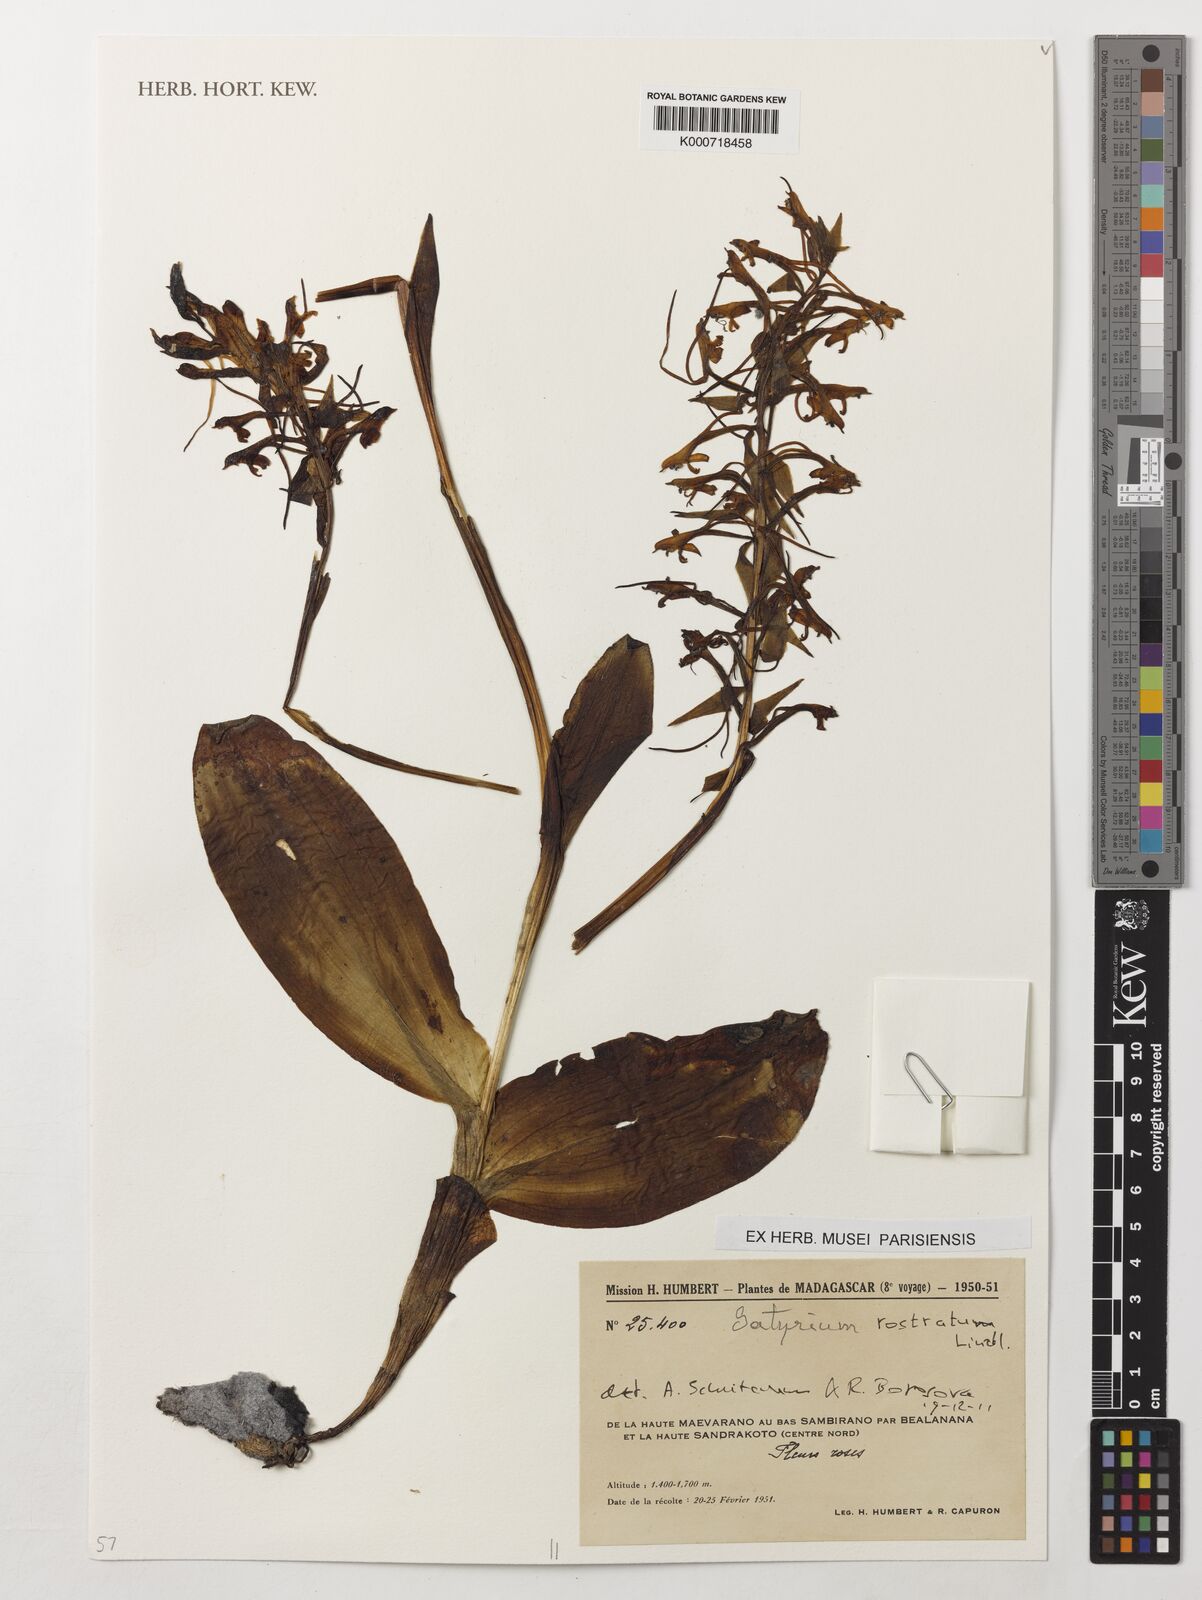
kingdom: Plantae
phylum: Tracheophyta
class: Liliopsida
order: Asparagales
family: Orchidaceae
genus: Satyrium
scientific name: Satyrium rostratum
